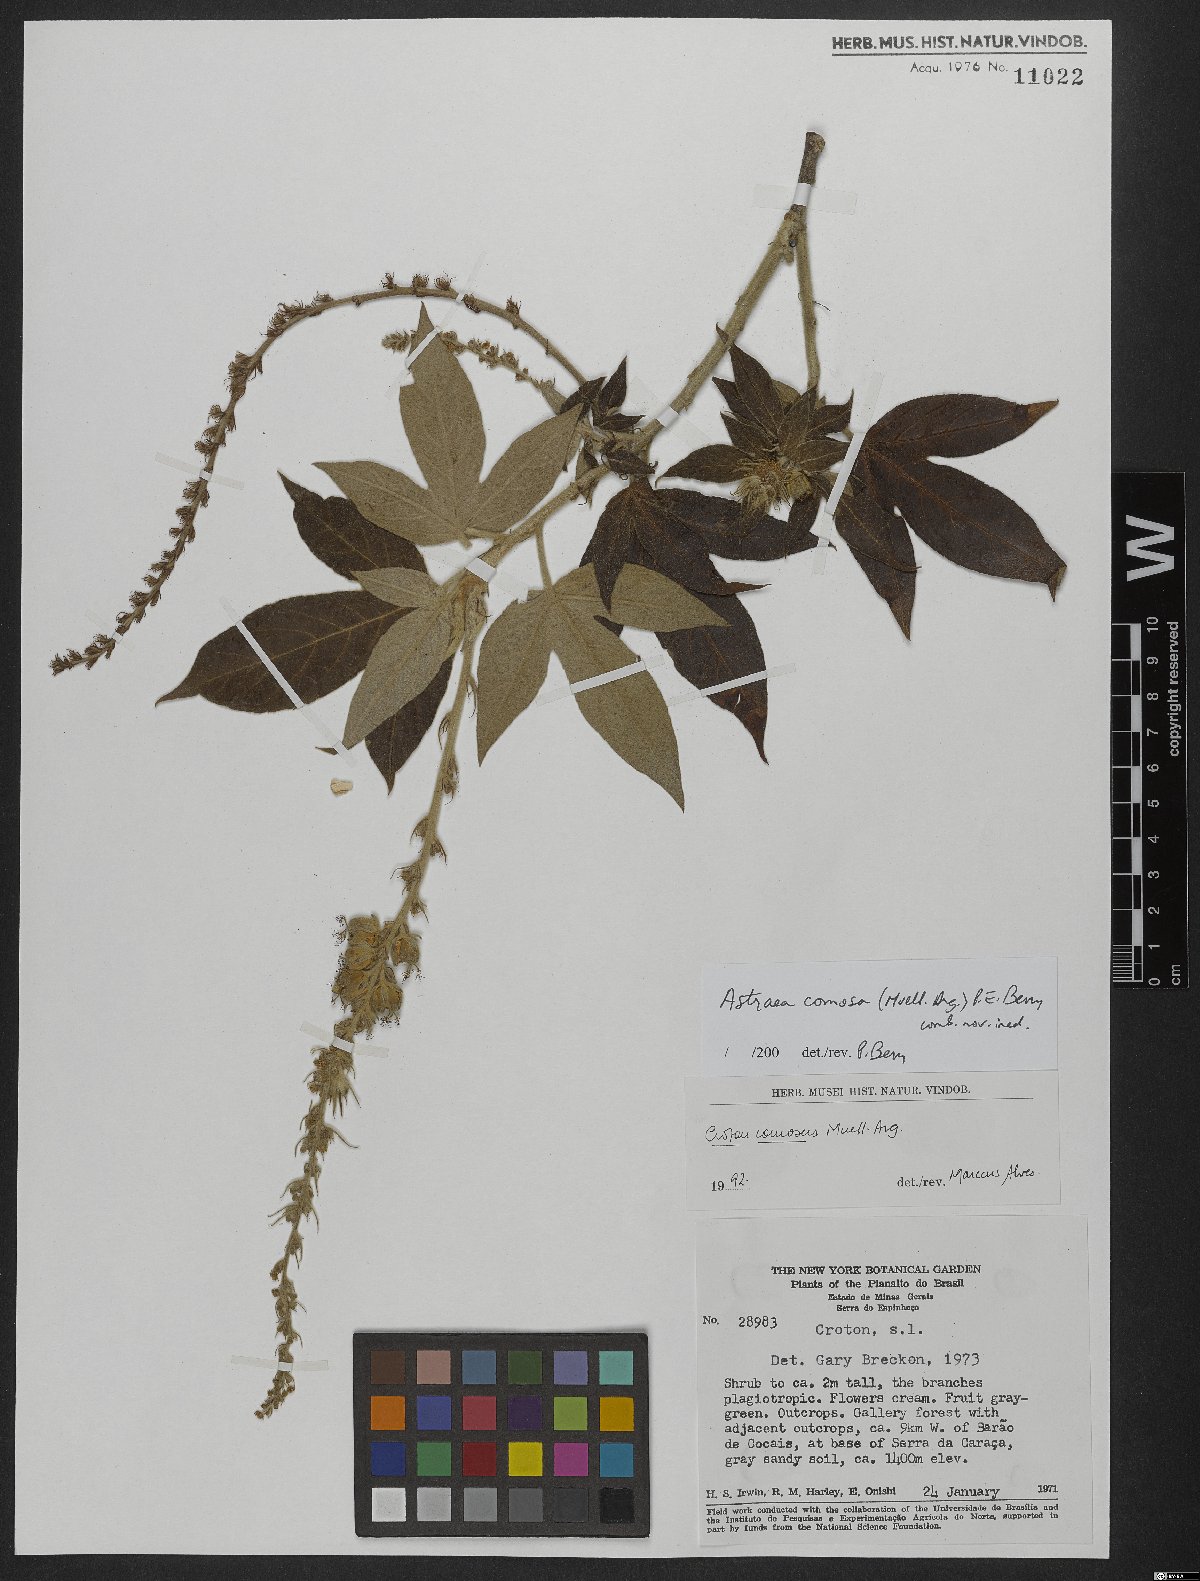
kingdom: Plantae
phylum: Tracheophyta
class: Magnoliopsida
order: Malpighiales
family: Euphorbiaceae
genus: Astraea
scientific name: Astraea comosa
